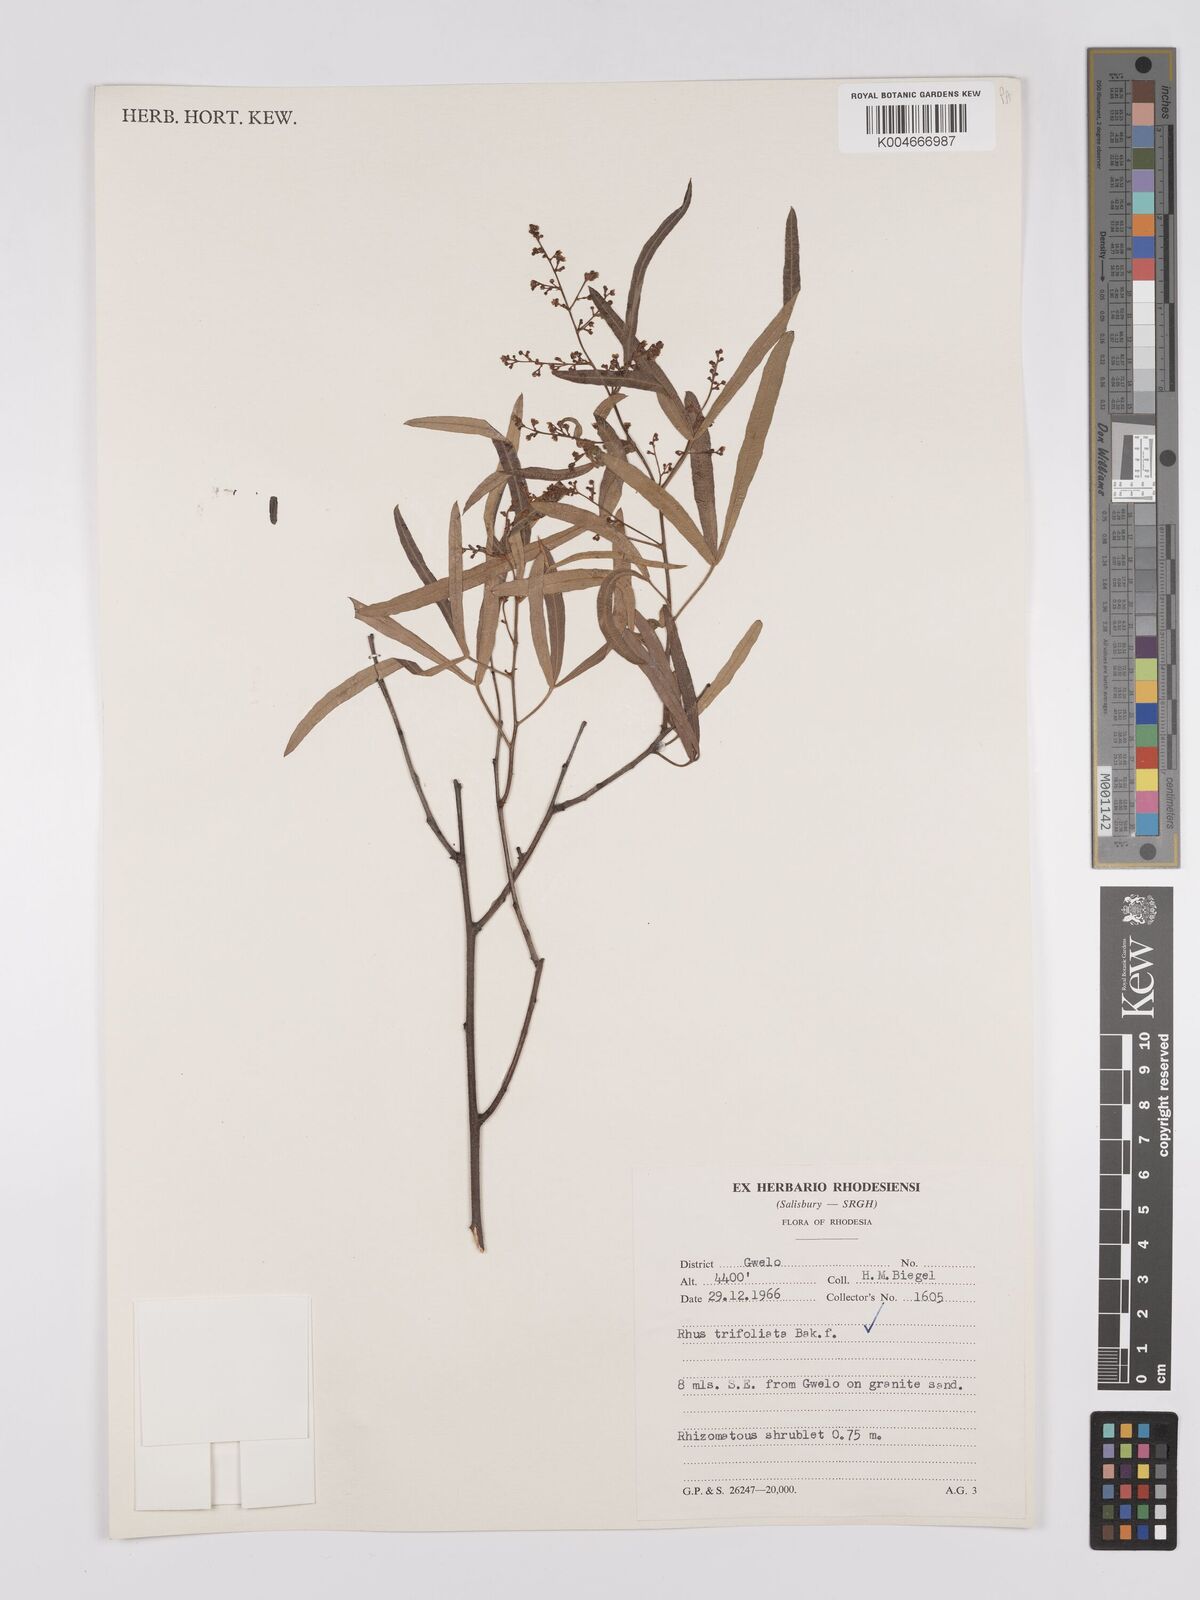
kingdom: Plantae
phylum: Tracheophyta
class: Magnoliopsida
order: Sapindales
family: Anacardiaceae
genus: Rhus
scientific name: Rhus
